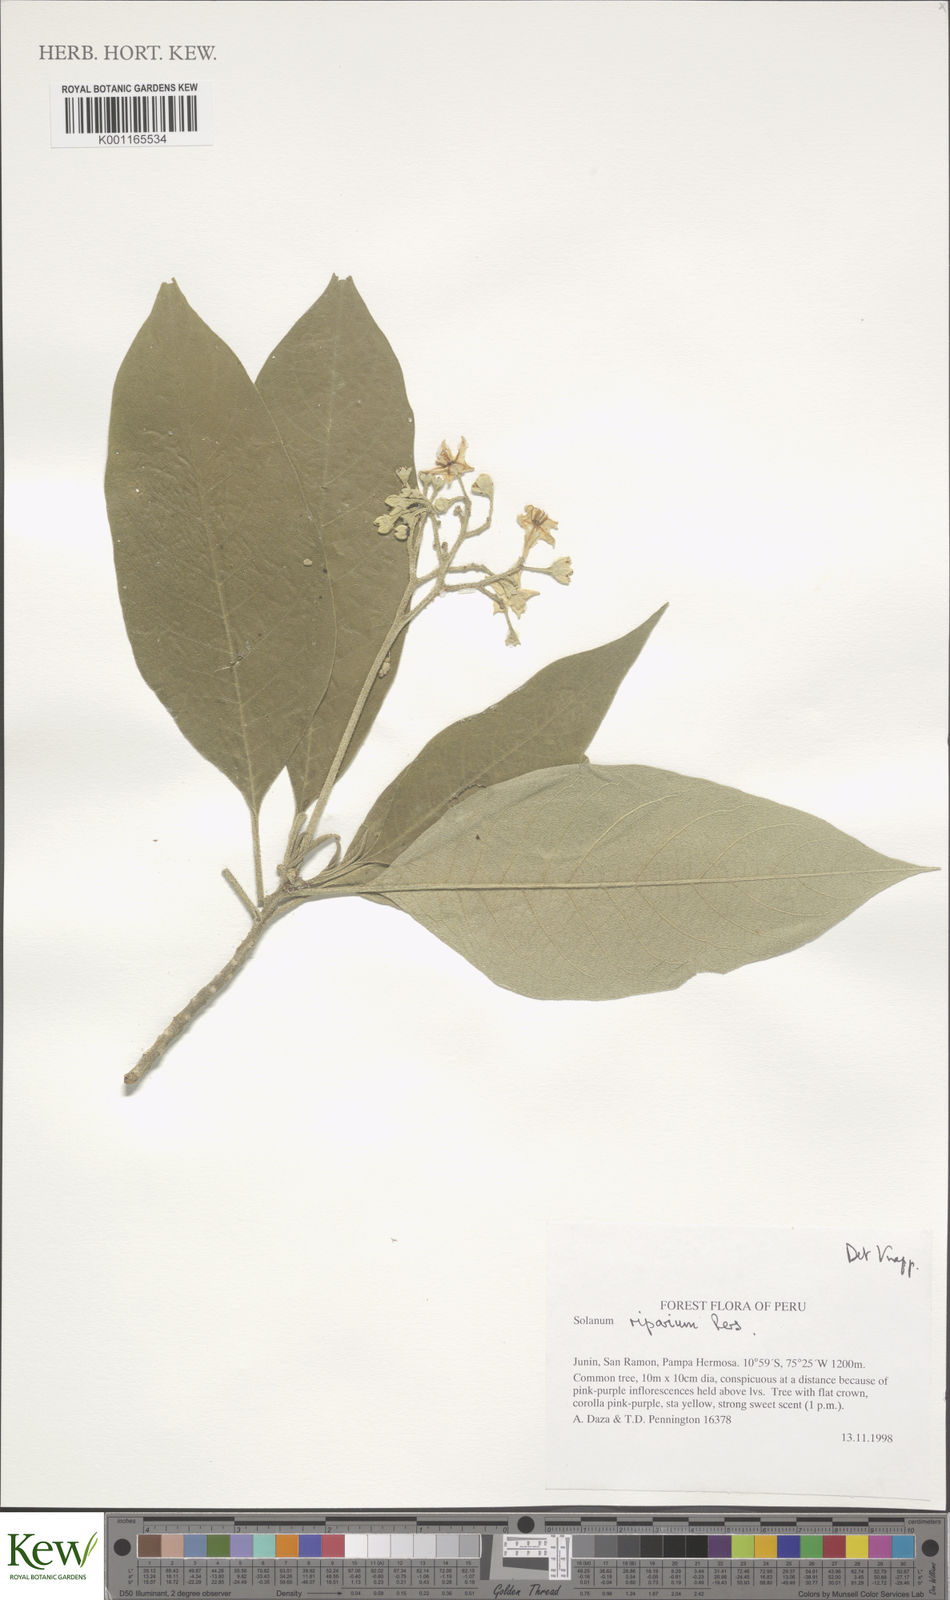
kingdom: Plantae
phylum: Tracheophyta
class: Magnoliopsida
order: Solanales
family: Solanaceae
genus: Solanum
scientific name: Solanum riparium
